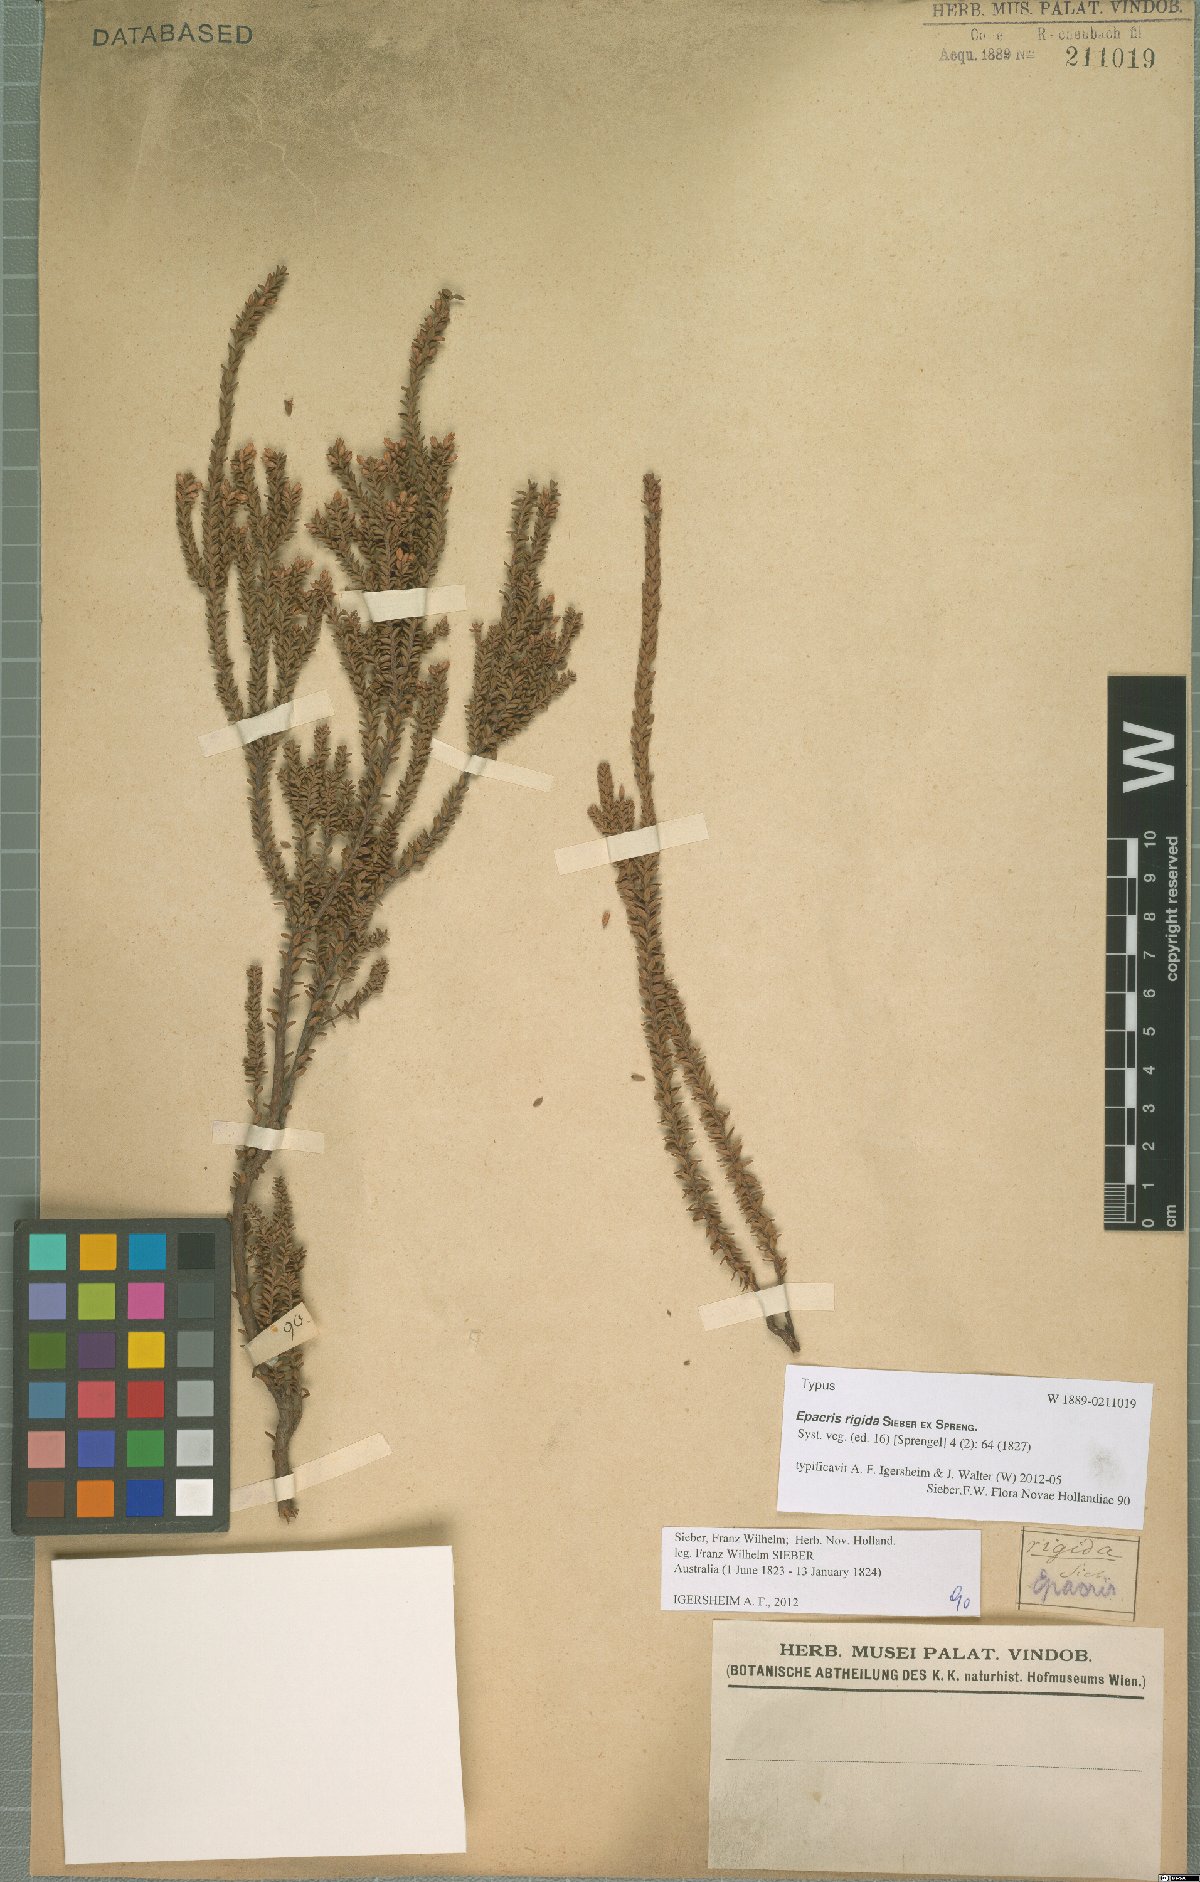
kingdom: Plantae
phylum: Tracheophyta
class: Magnoliopsida
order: Ericales
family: Ericaceae
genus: Epacris
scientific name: Epacris rigida
